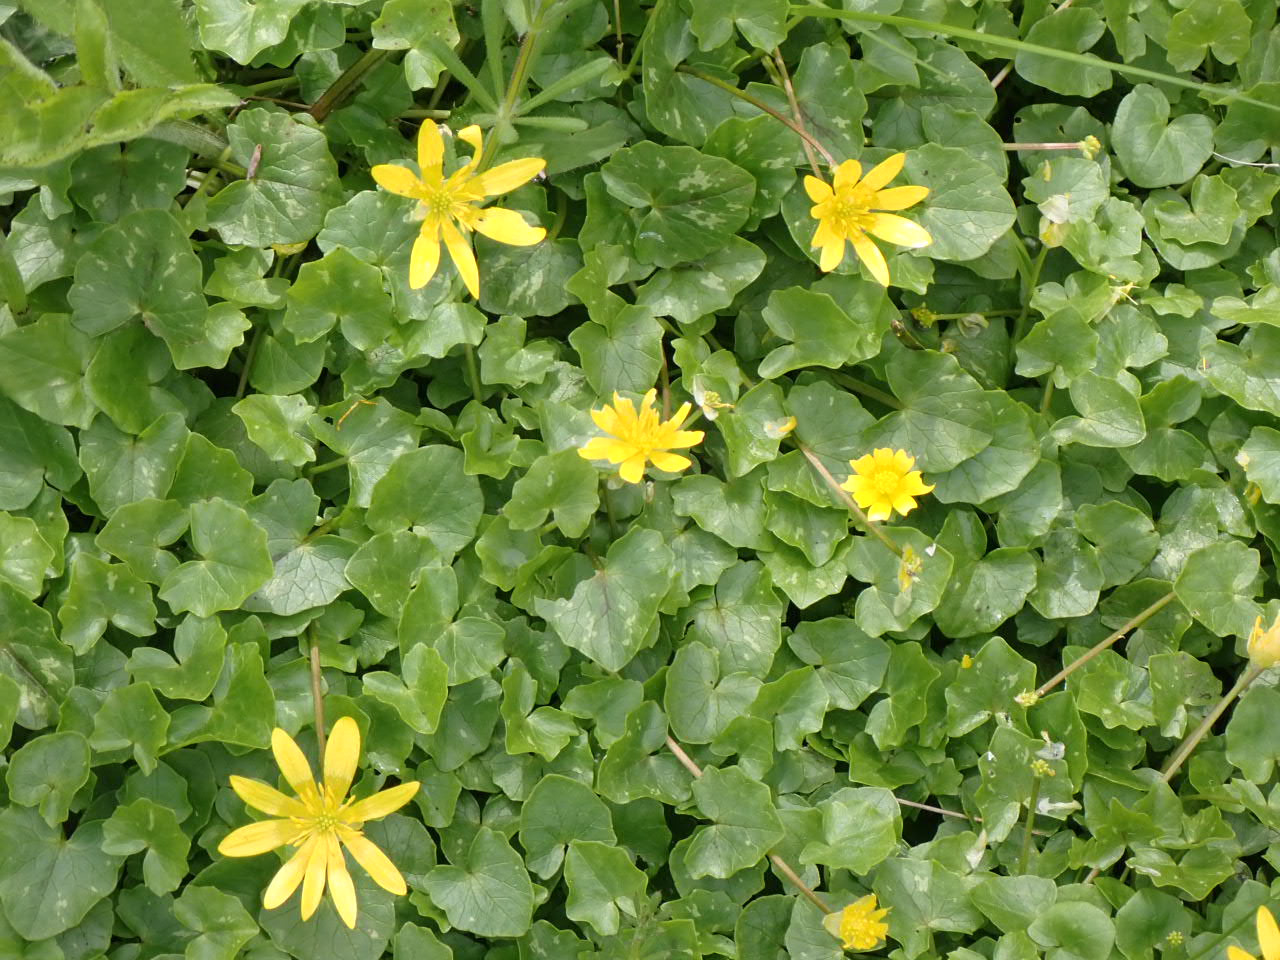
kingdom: Plantae
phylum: Tracheophyta
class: Magnoliopsida
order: Ranunculales
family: Ranunculaceae
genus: Ficaria
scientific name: Ficaria verna
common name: Vorterod
